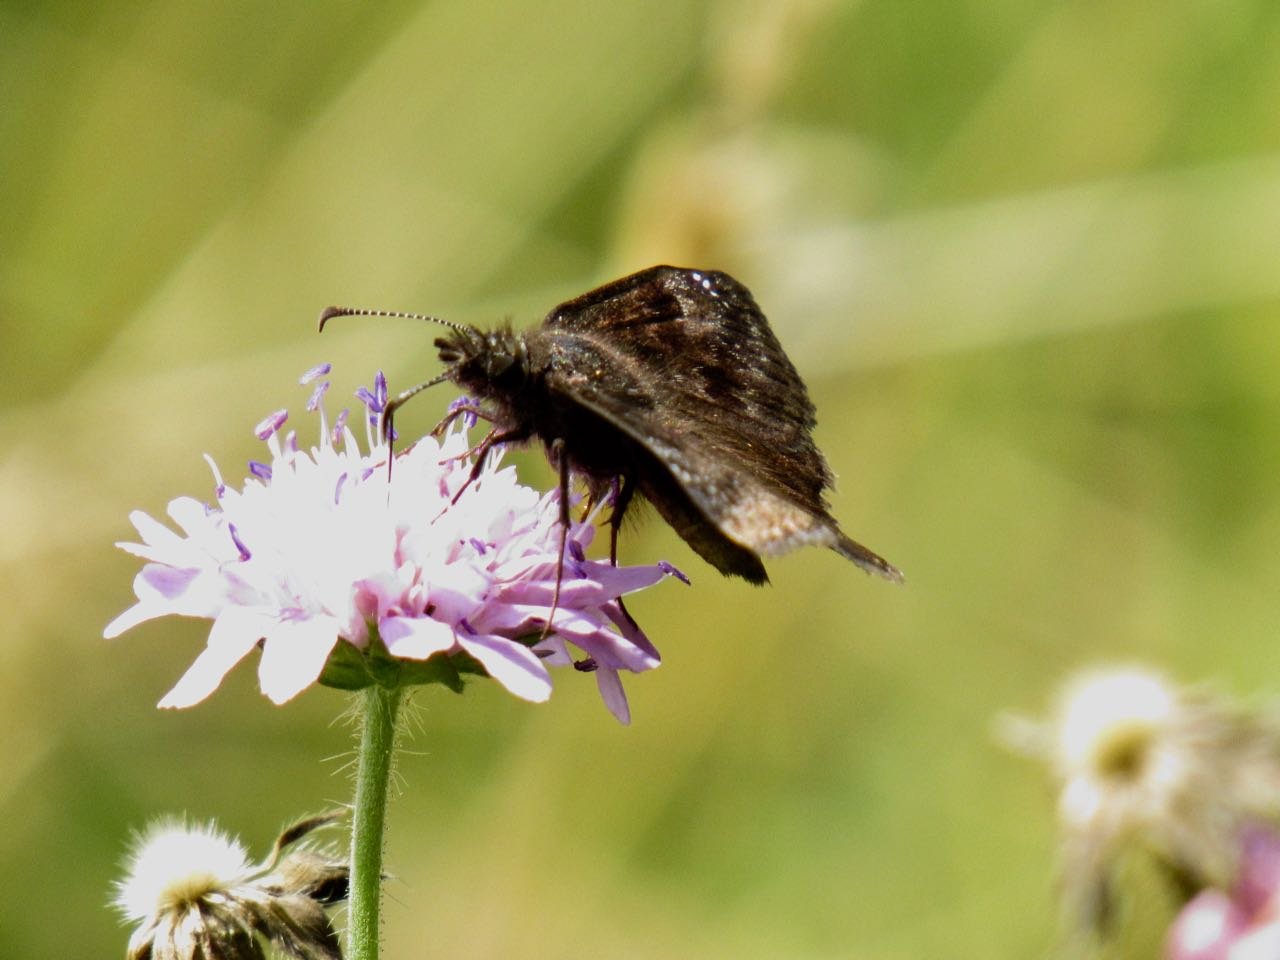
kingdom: Animalia
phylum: Arthropoda
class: Insecta
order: Lepidoptera
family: Hesperiidae
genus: Gesta
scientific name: Gesta
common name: Wild Indigo Duskywing
